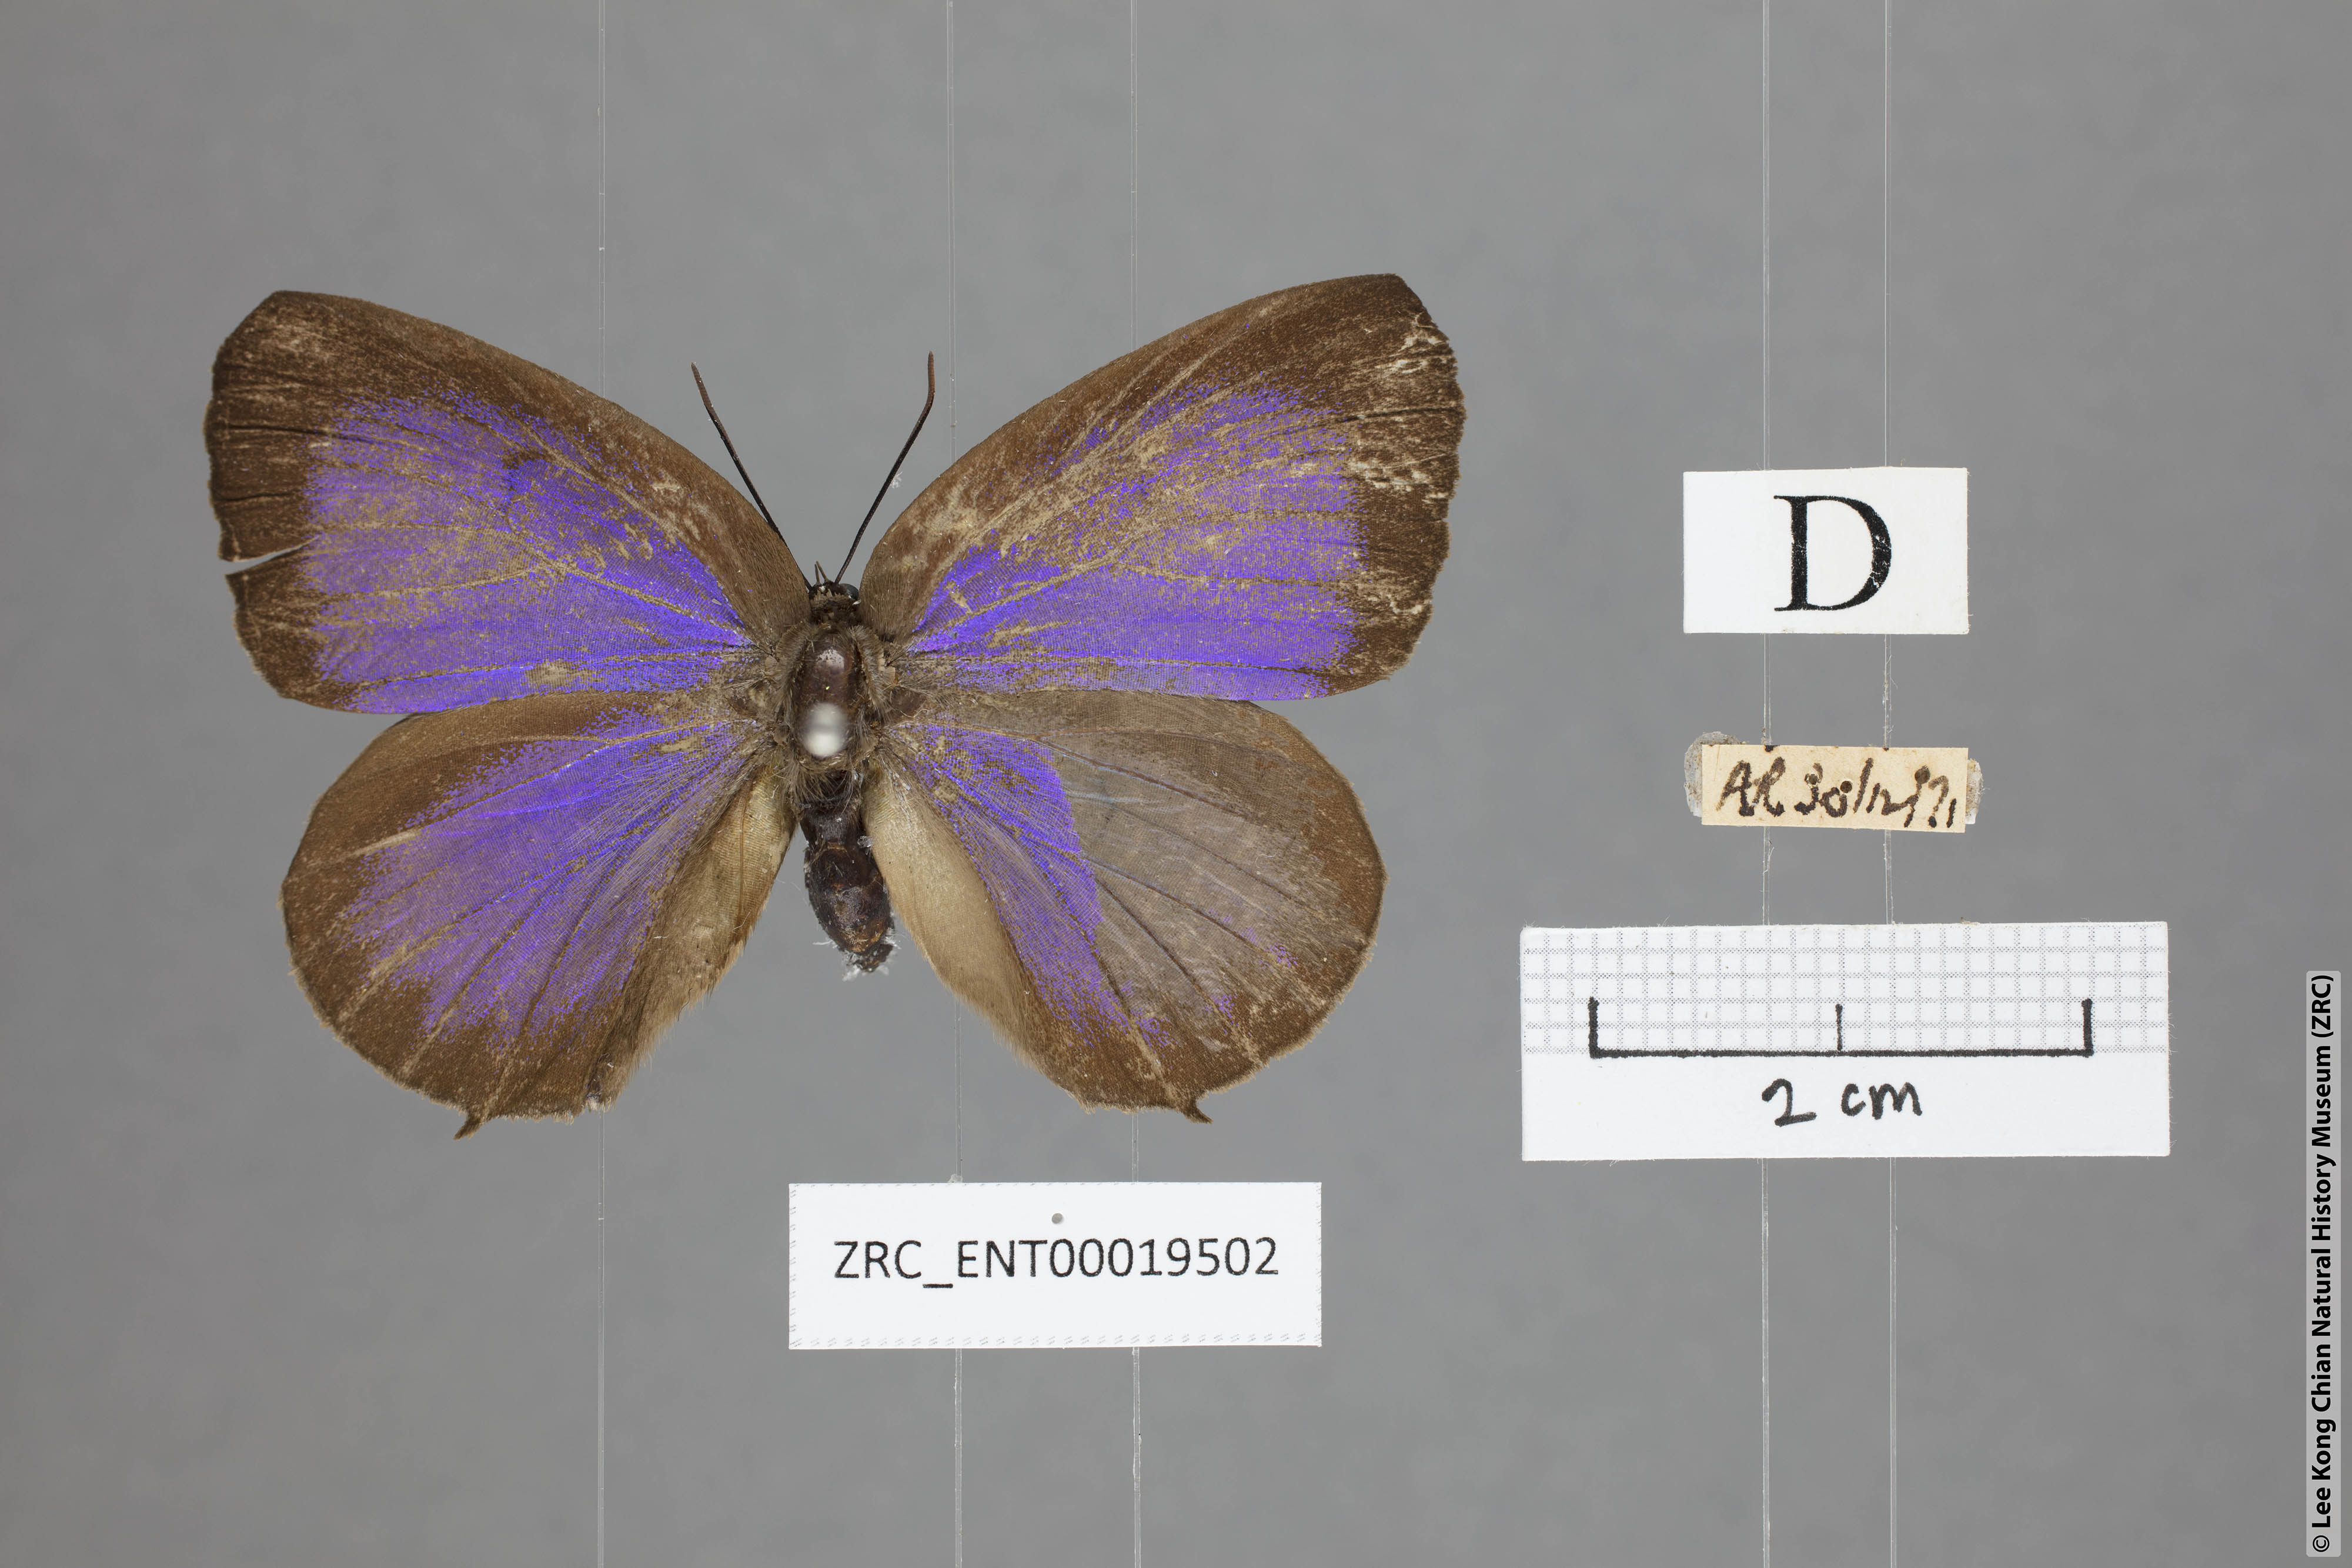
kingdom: Animalia
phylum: Arthropoda
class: Insecta
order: Lepidoptera
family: Lycaenidae
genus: Arhopala
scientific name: Arhopala hellada
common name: Long-banded oakblue
